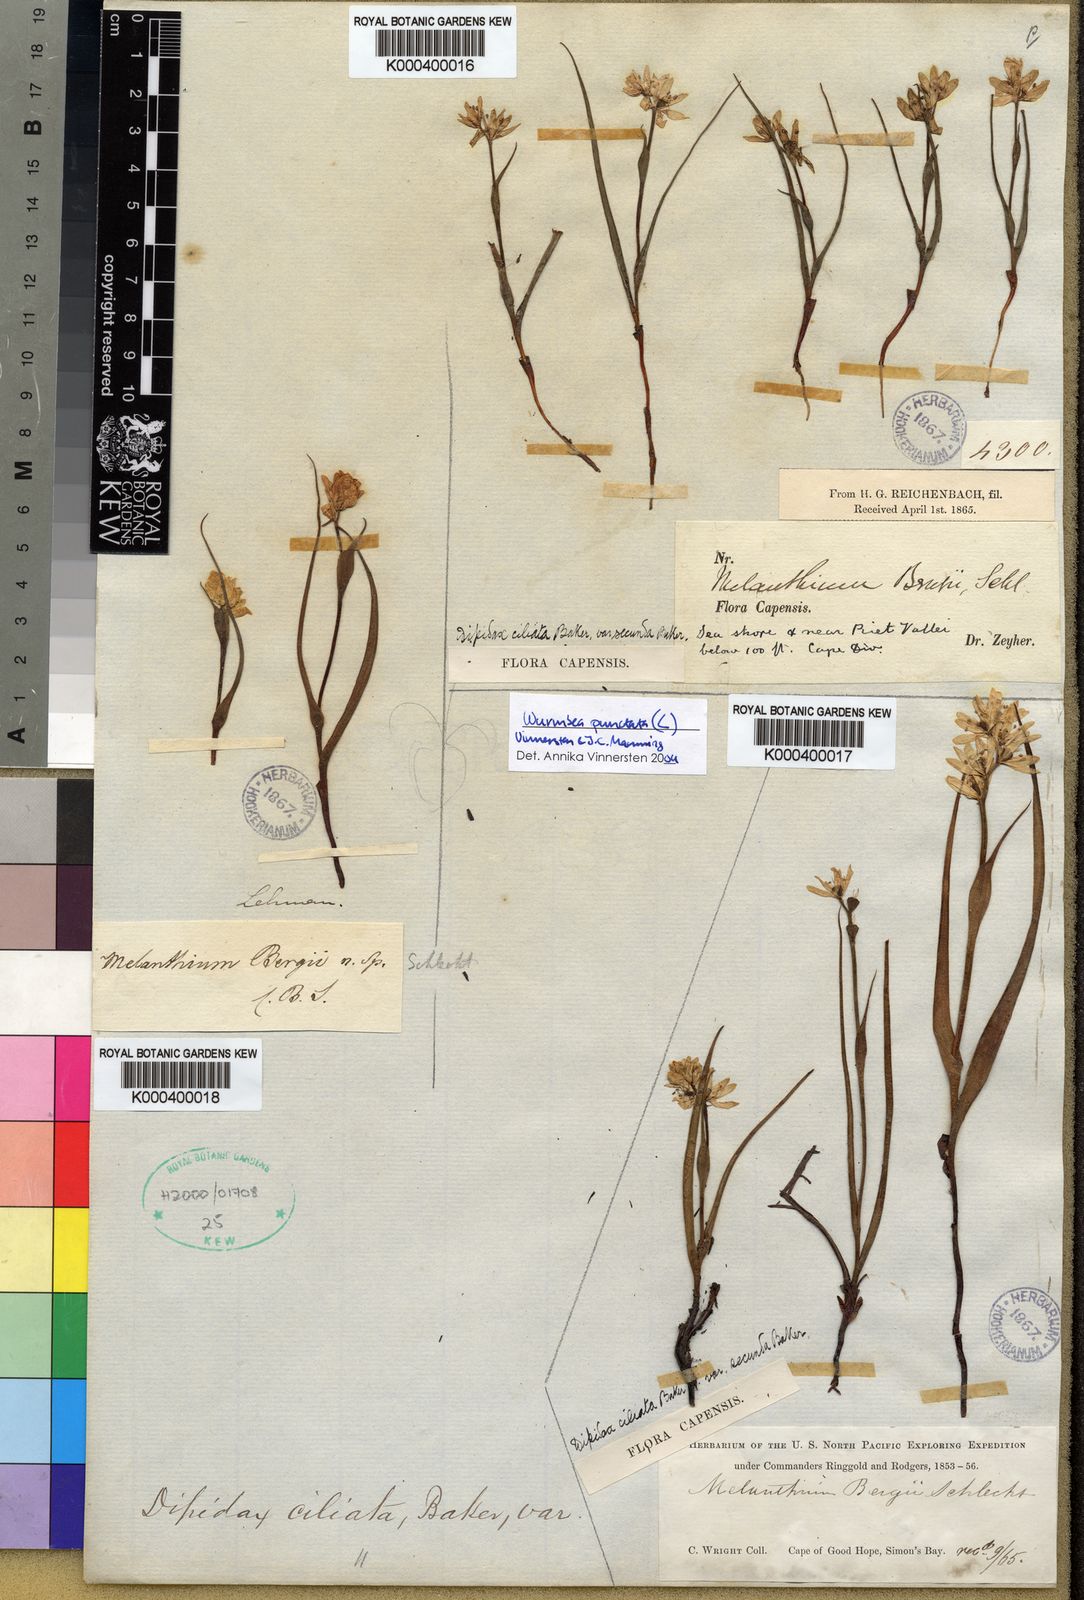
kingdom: Plantae
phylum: Tracheophyta
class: Liliopsida
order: Liliales
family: Colchicaceae
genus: Wurmbea
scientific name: Wurmbea punctata
